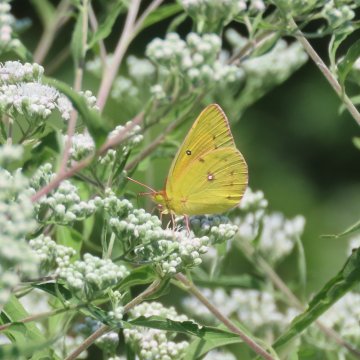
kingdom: Animalia
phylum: Arthropoda
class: Insecta
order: Lepidoptera
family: Pieridae
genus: Colias
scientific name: Colias eurytheme
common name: Orange Sulphur
